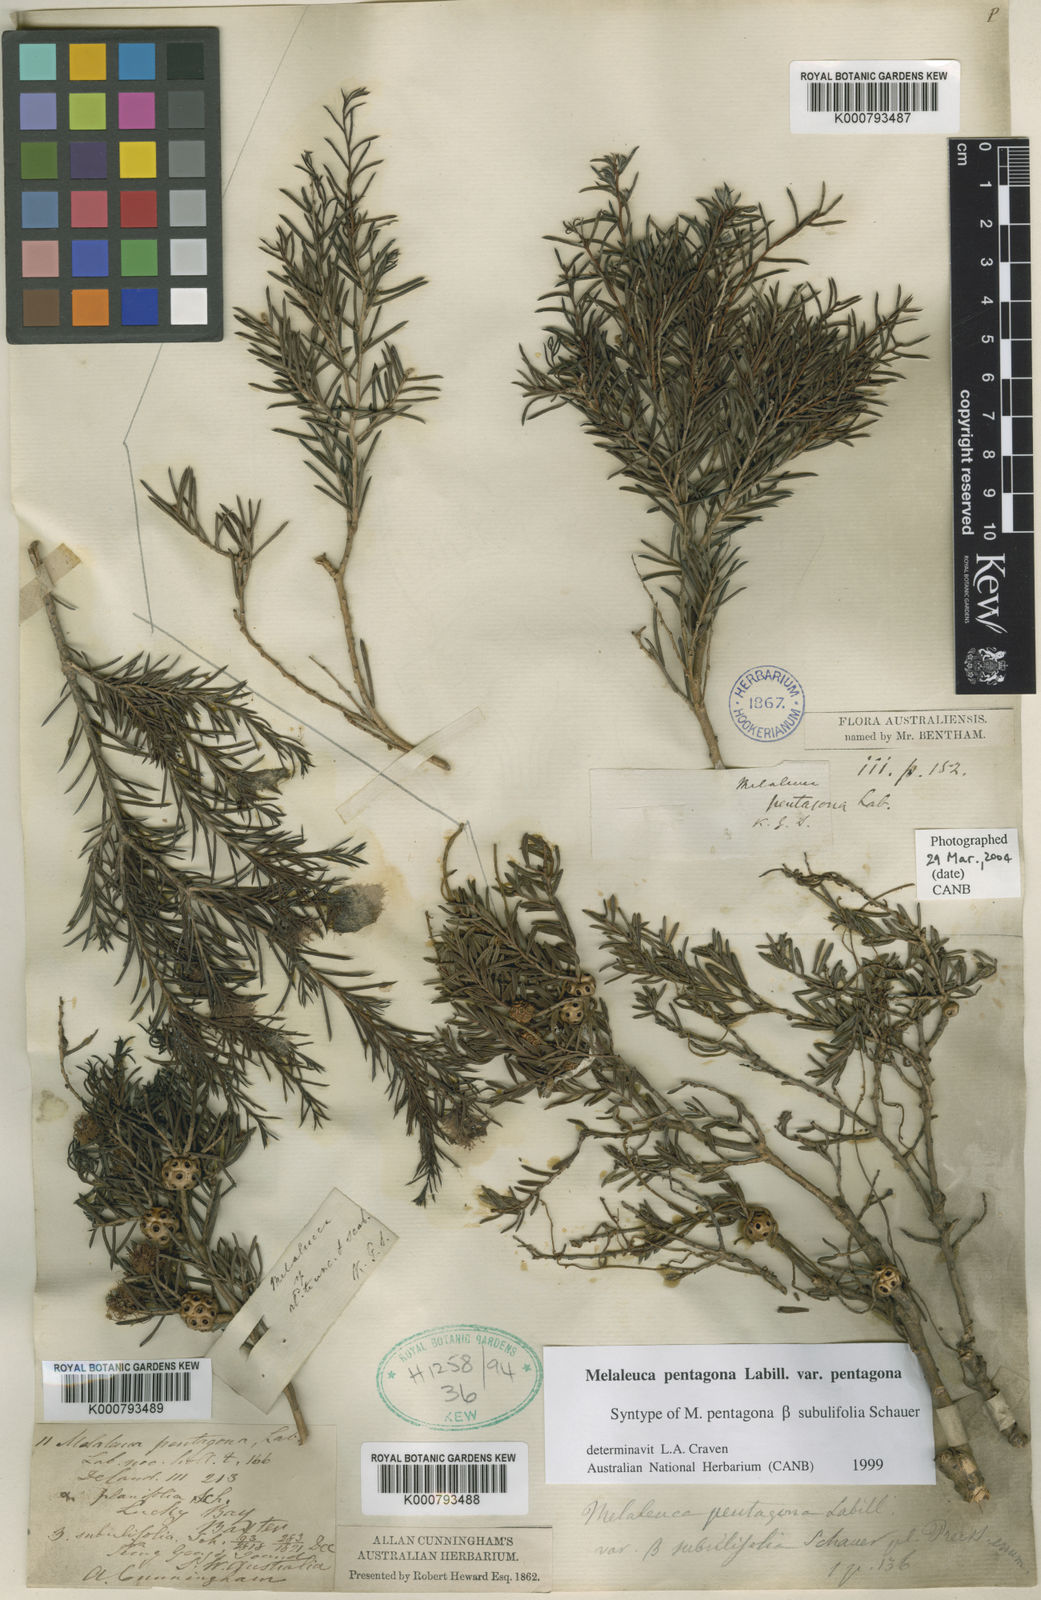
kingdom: Plantae
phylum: Tracheophyta
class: Magnoliopsida
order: Myrtales
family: Myrtaceae
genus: Melaleuca
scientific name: Melaleuca pentagona
